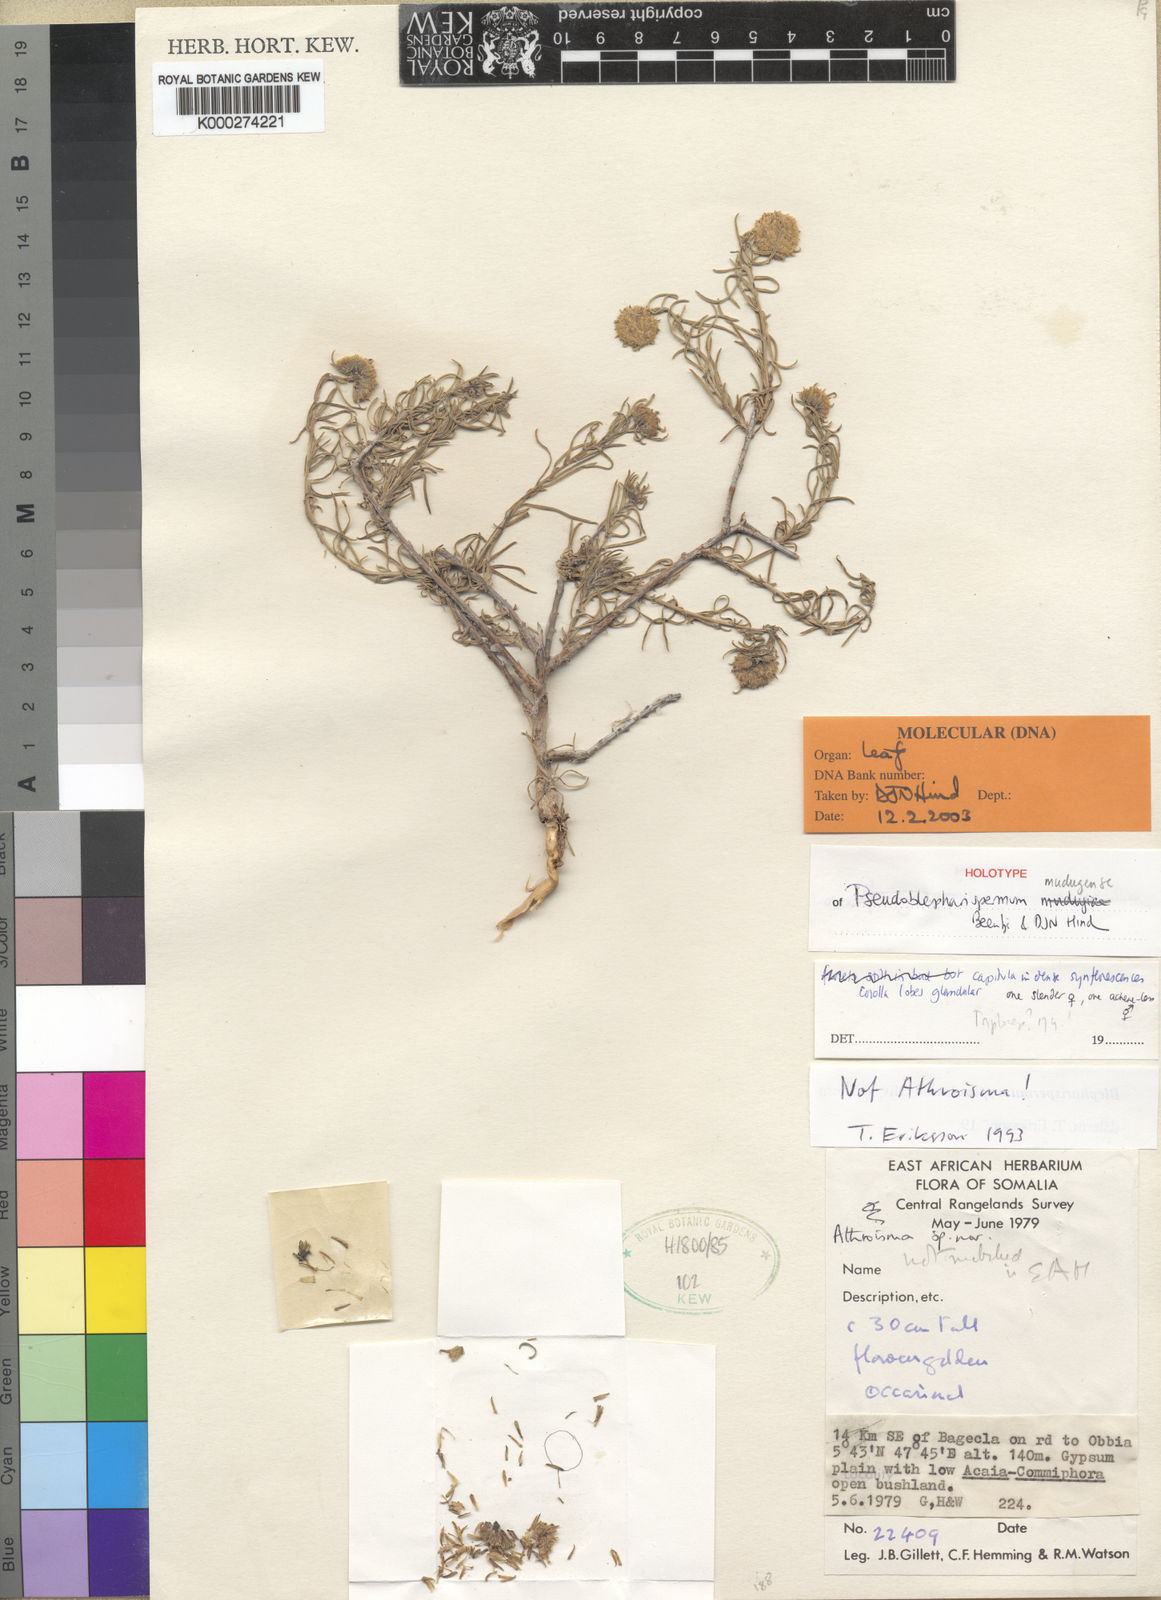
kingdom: Plantae
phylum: Tracheophyta
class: Magnoliopsida
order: Asterales
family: Asteraceae
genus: Pseudoblepharispermum
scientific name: Pseudoblepharispermum mudugense
